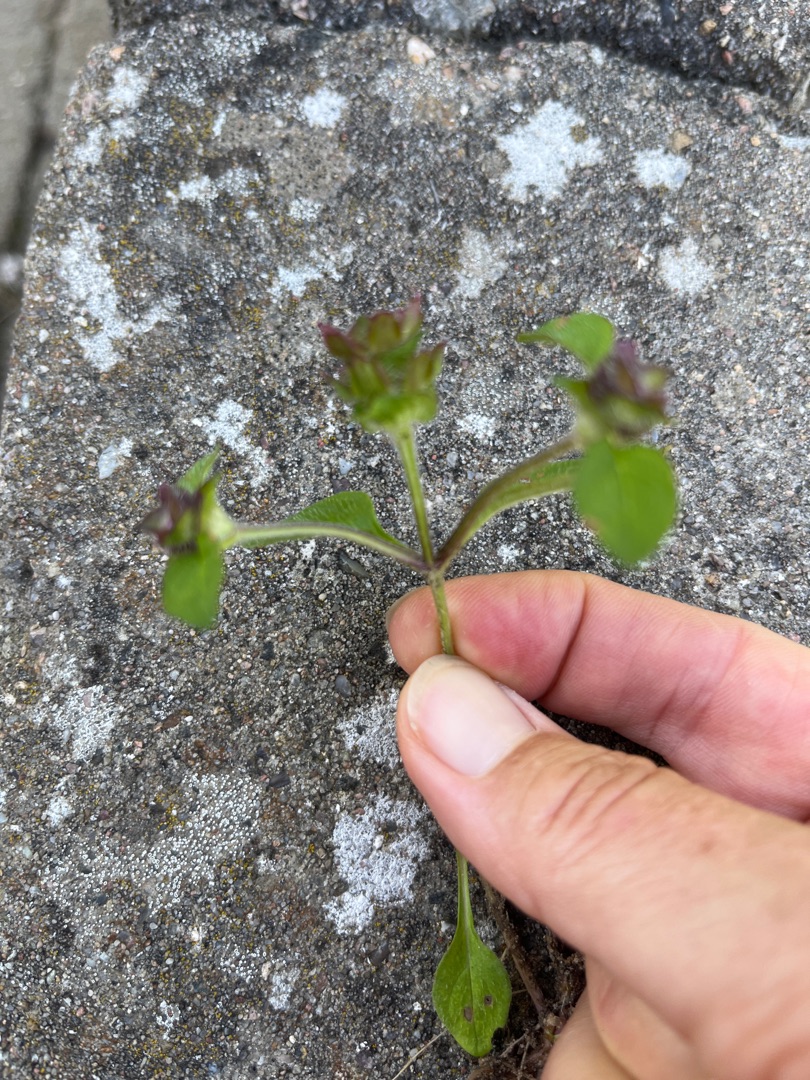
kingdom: Plantae
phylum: Tracheophyta
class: Magnoliopsida
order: Lamiales
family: Lamiaceae
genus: Prunella
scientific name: Prunella vulgaris
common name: Almindelig brunelle
